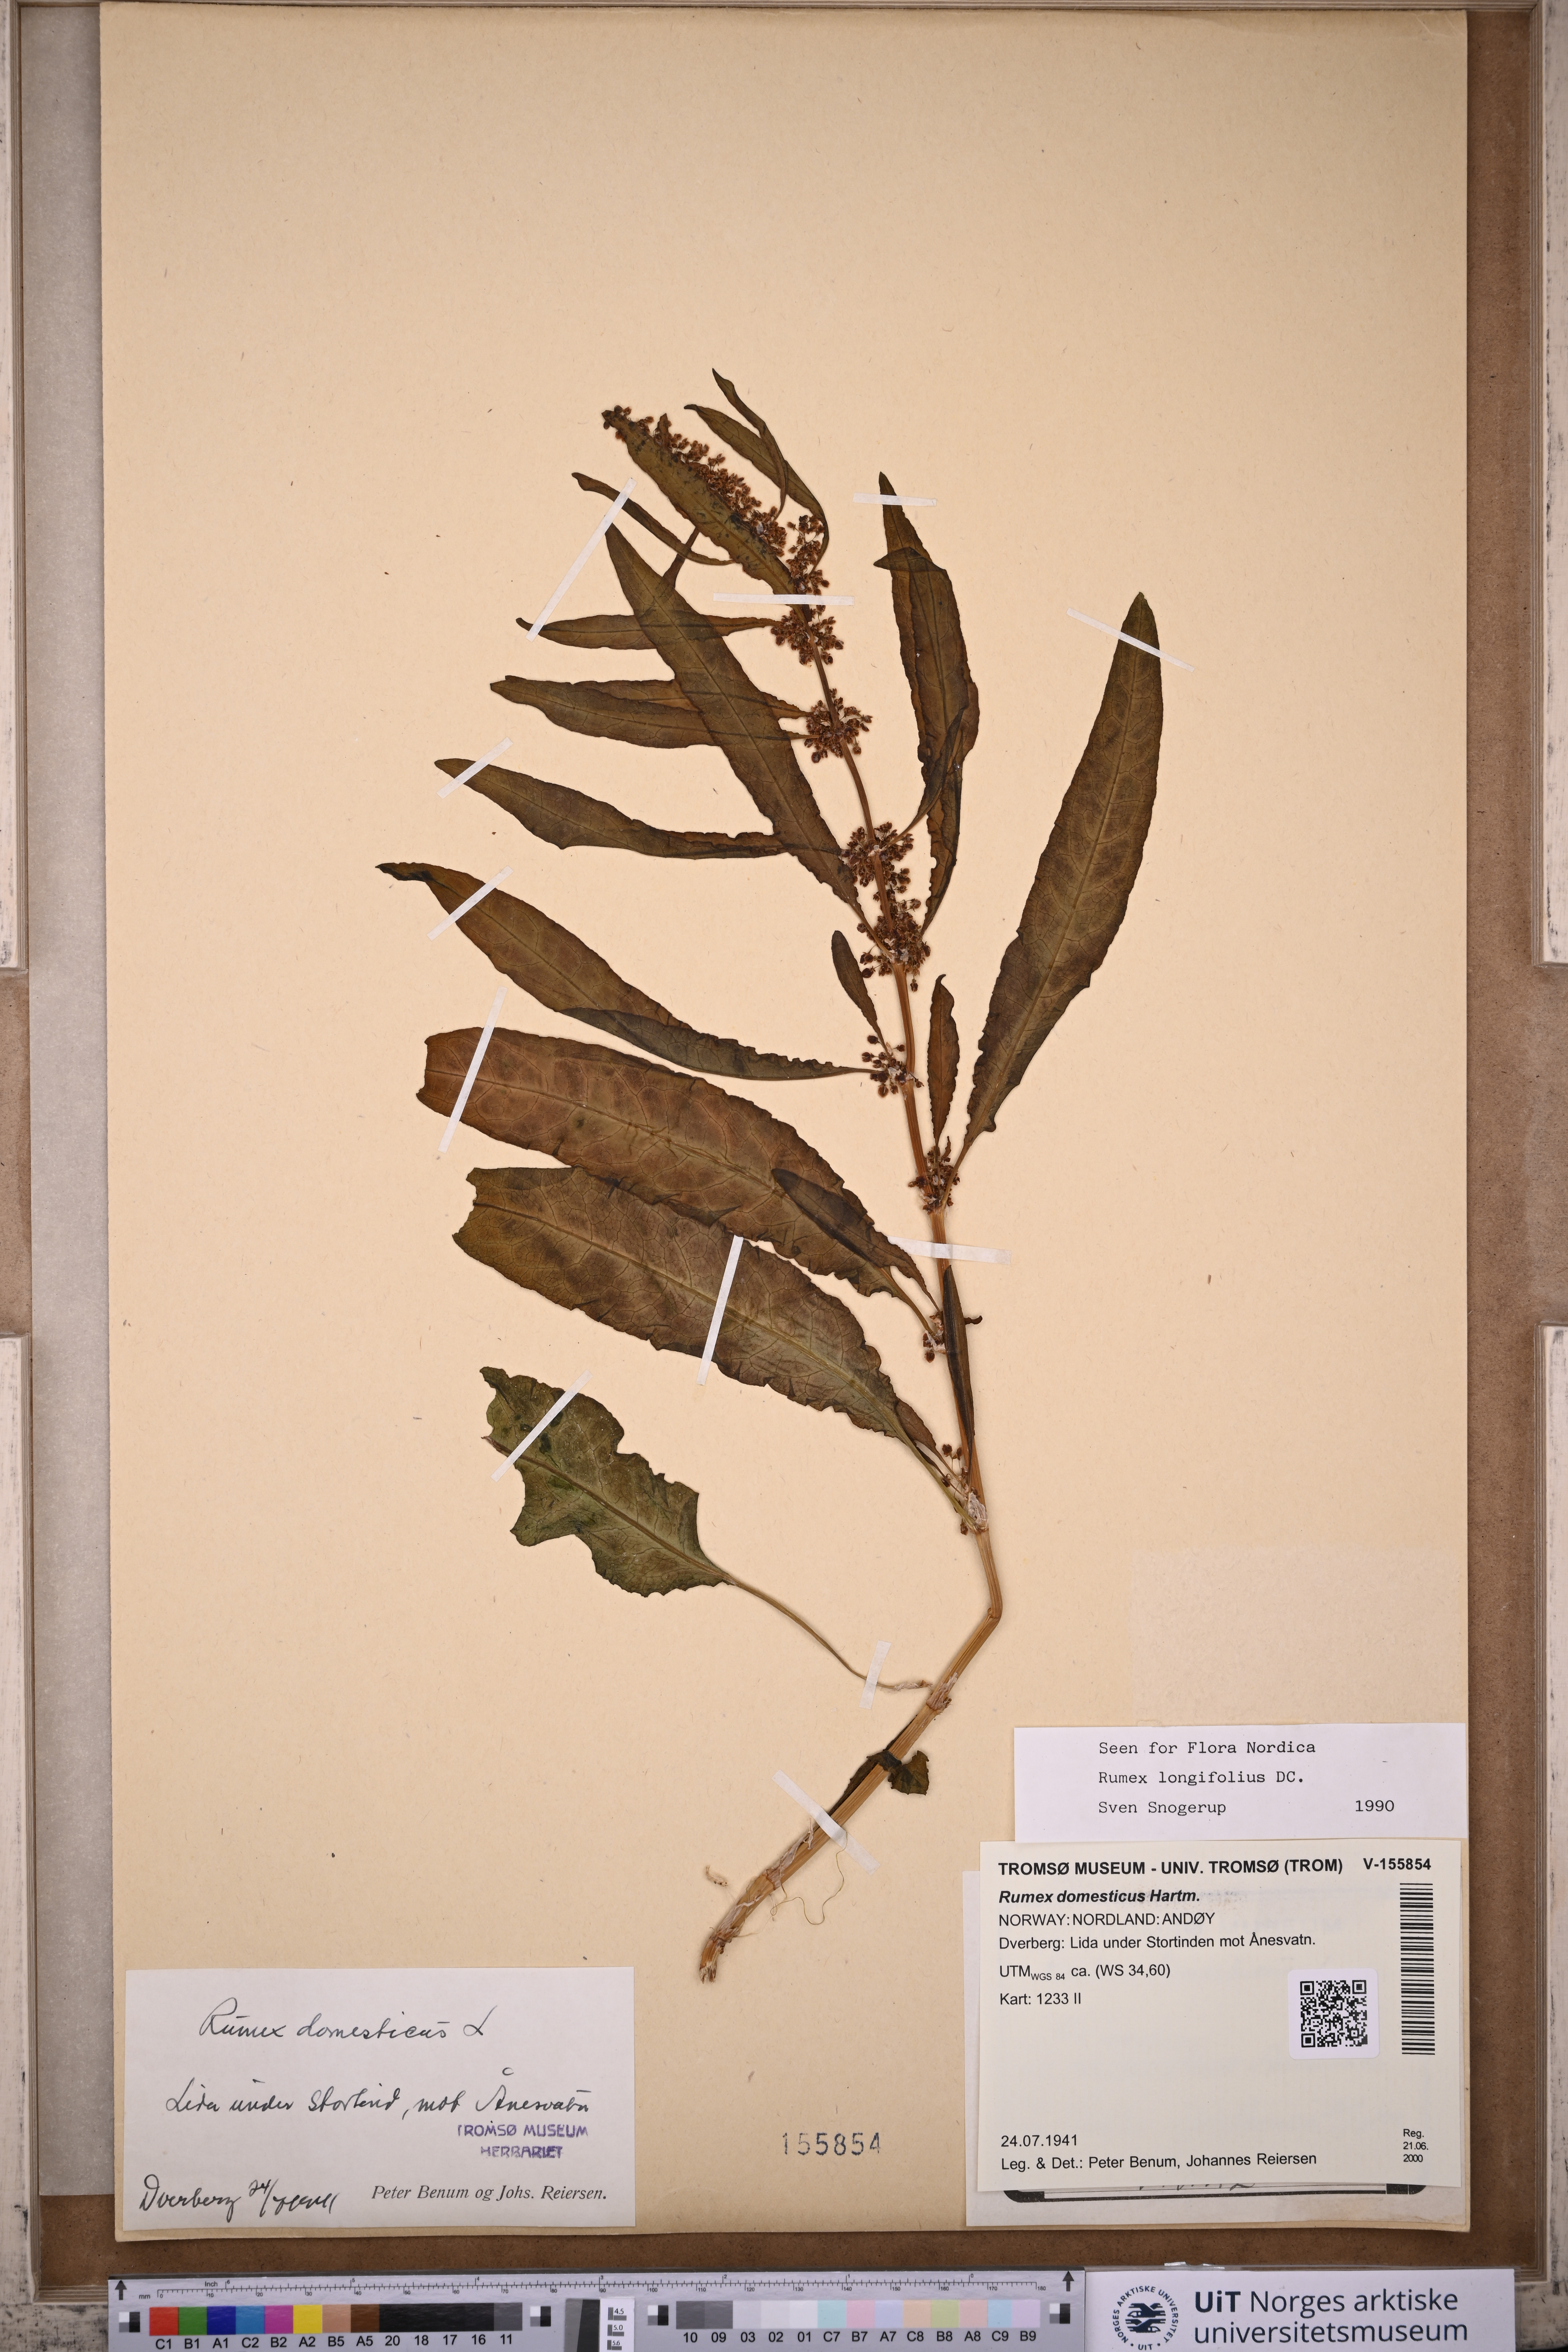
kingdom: Plantae
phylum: Tracheophyta
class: Magnoliopsida
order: Caryophyllales
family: Polygonaceae
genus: Rumex
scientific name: Rumex longifolius
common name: Dooryard dock
